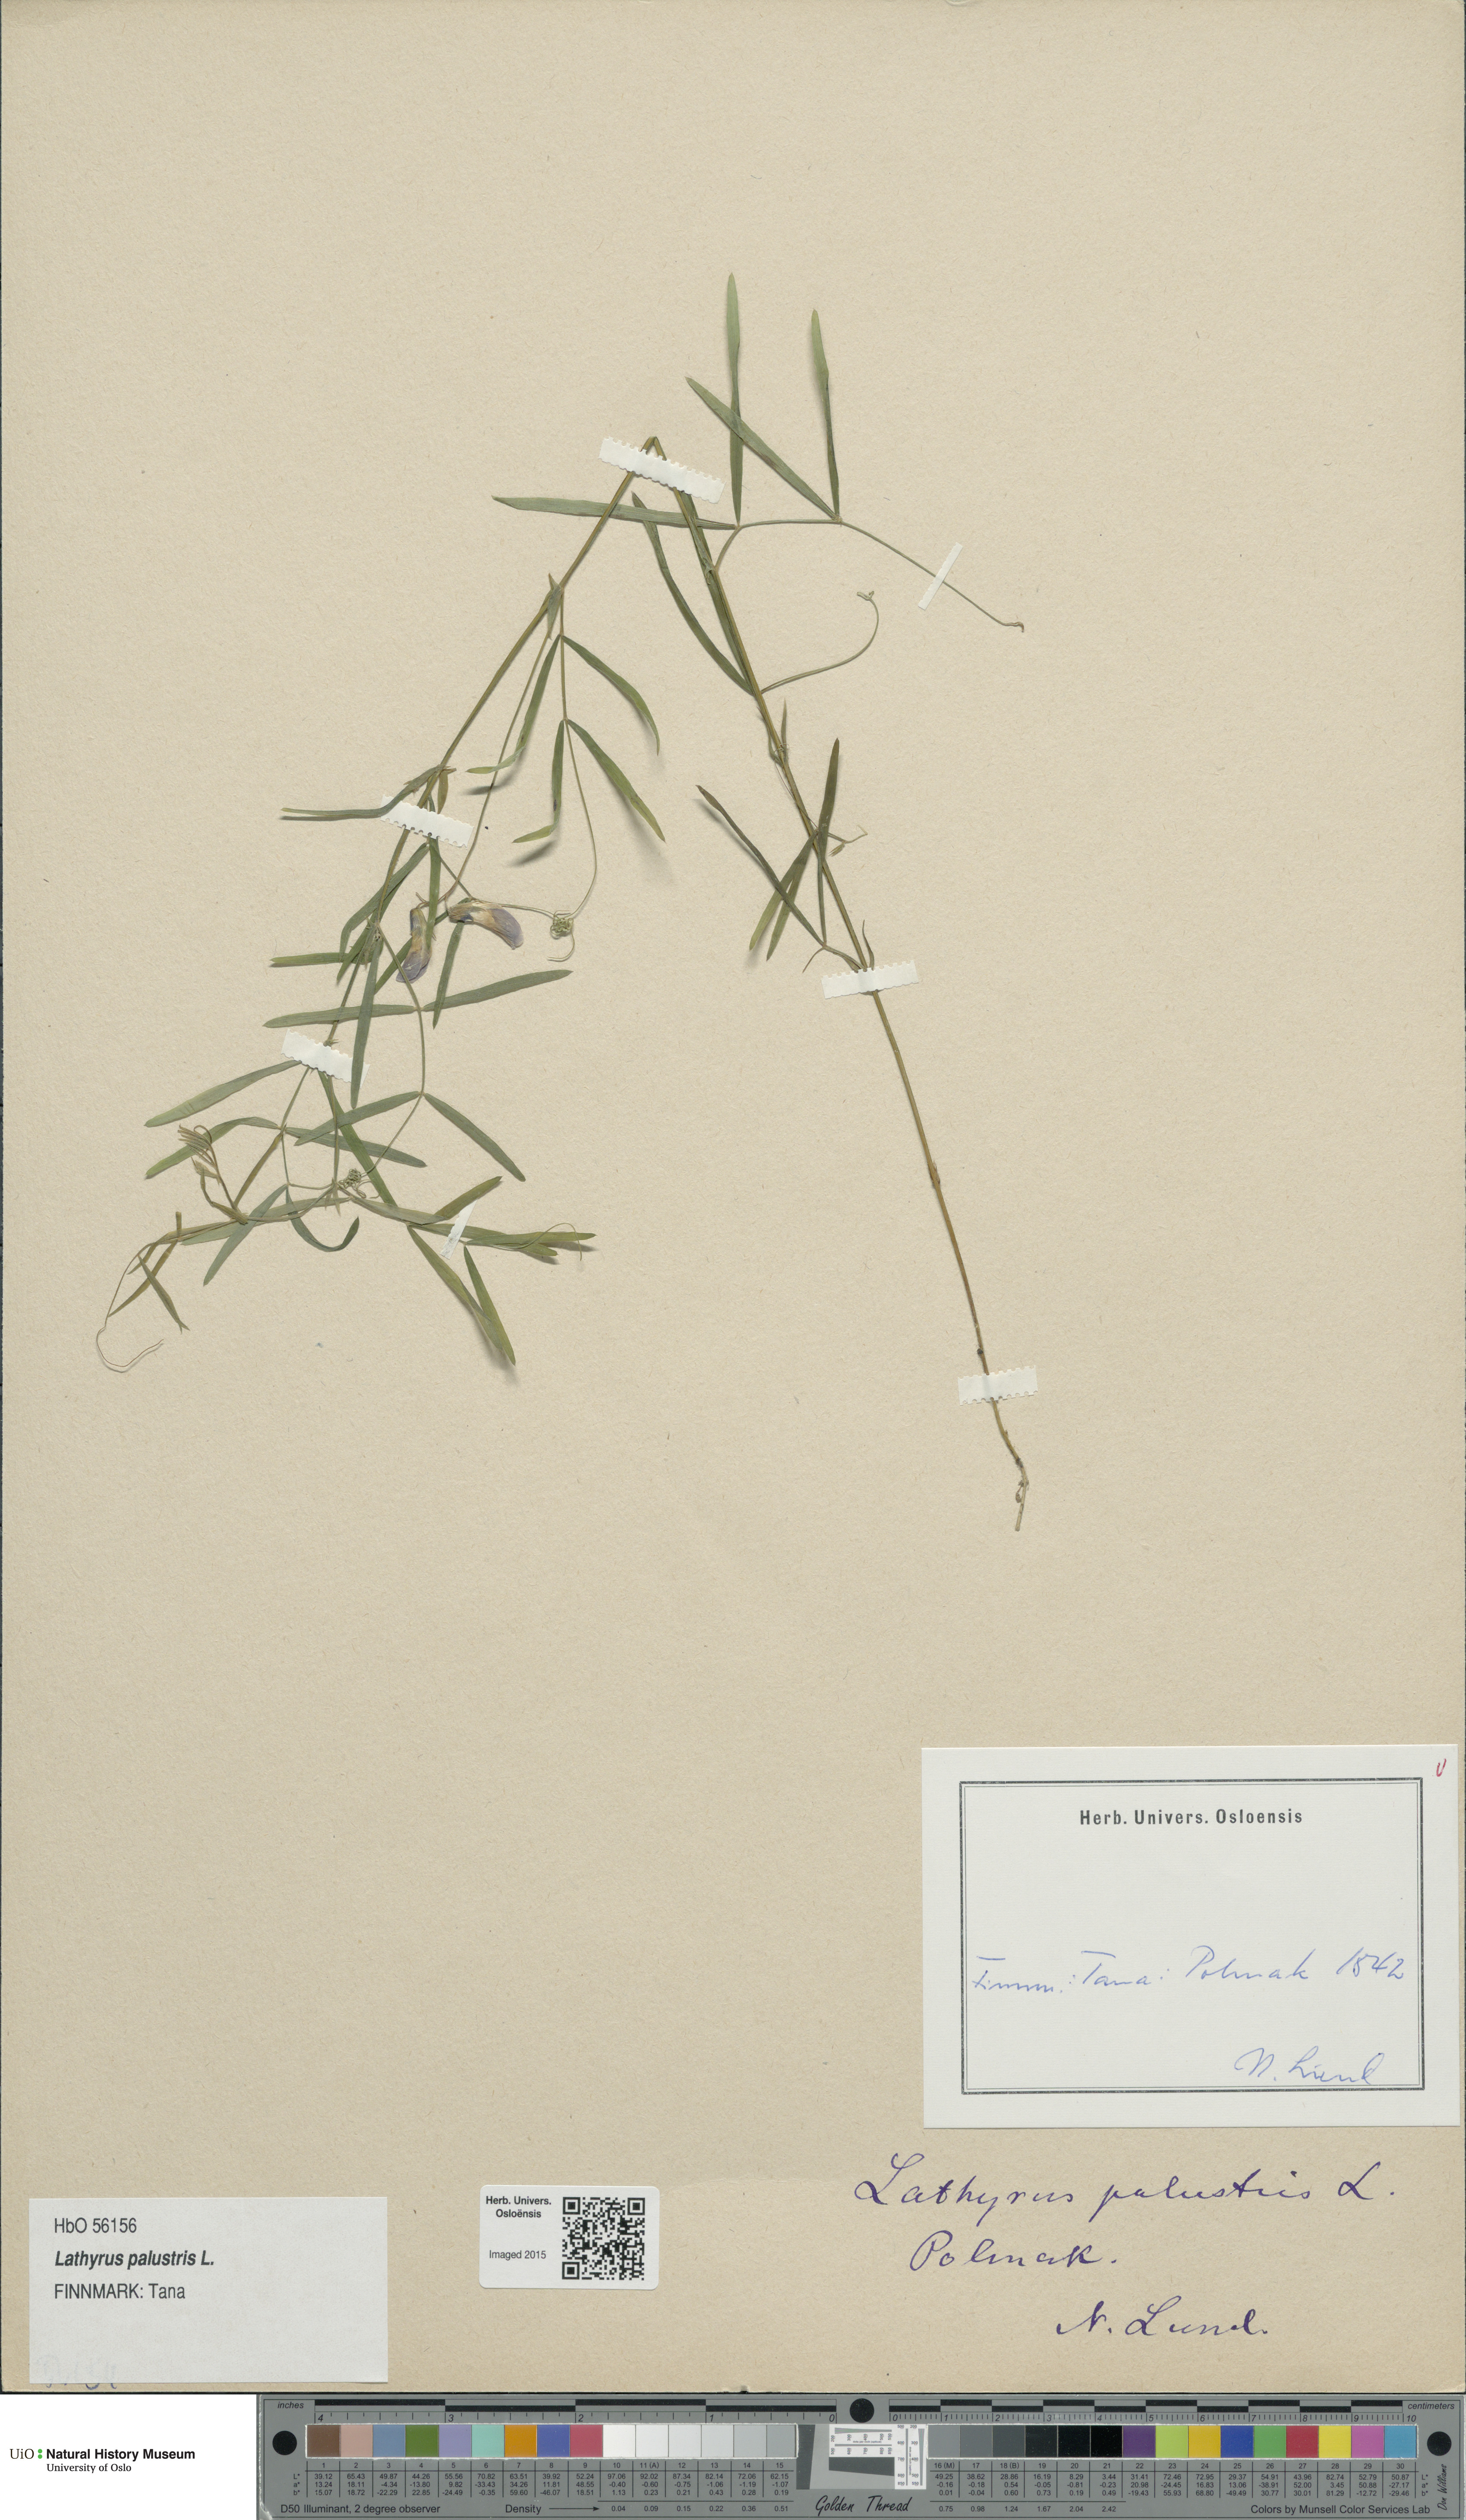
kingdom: Plantae
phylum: Tracheophyta
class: Magnoliopsida
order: Fabales
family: Fabaceae
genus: Lathyrus
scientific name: Lathyrus palustris
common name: Marsh pea
